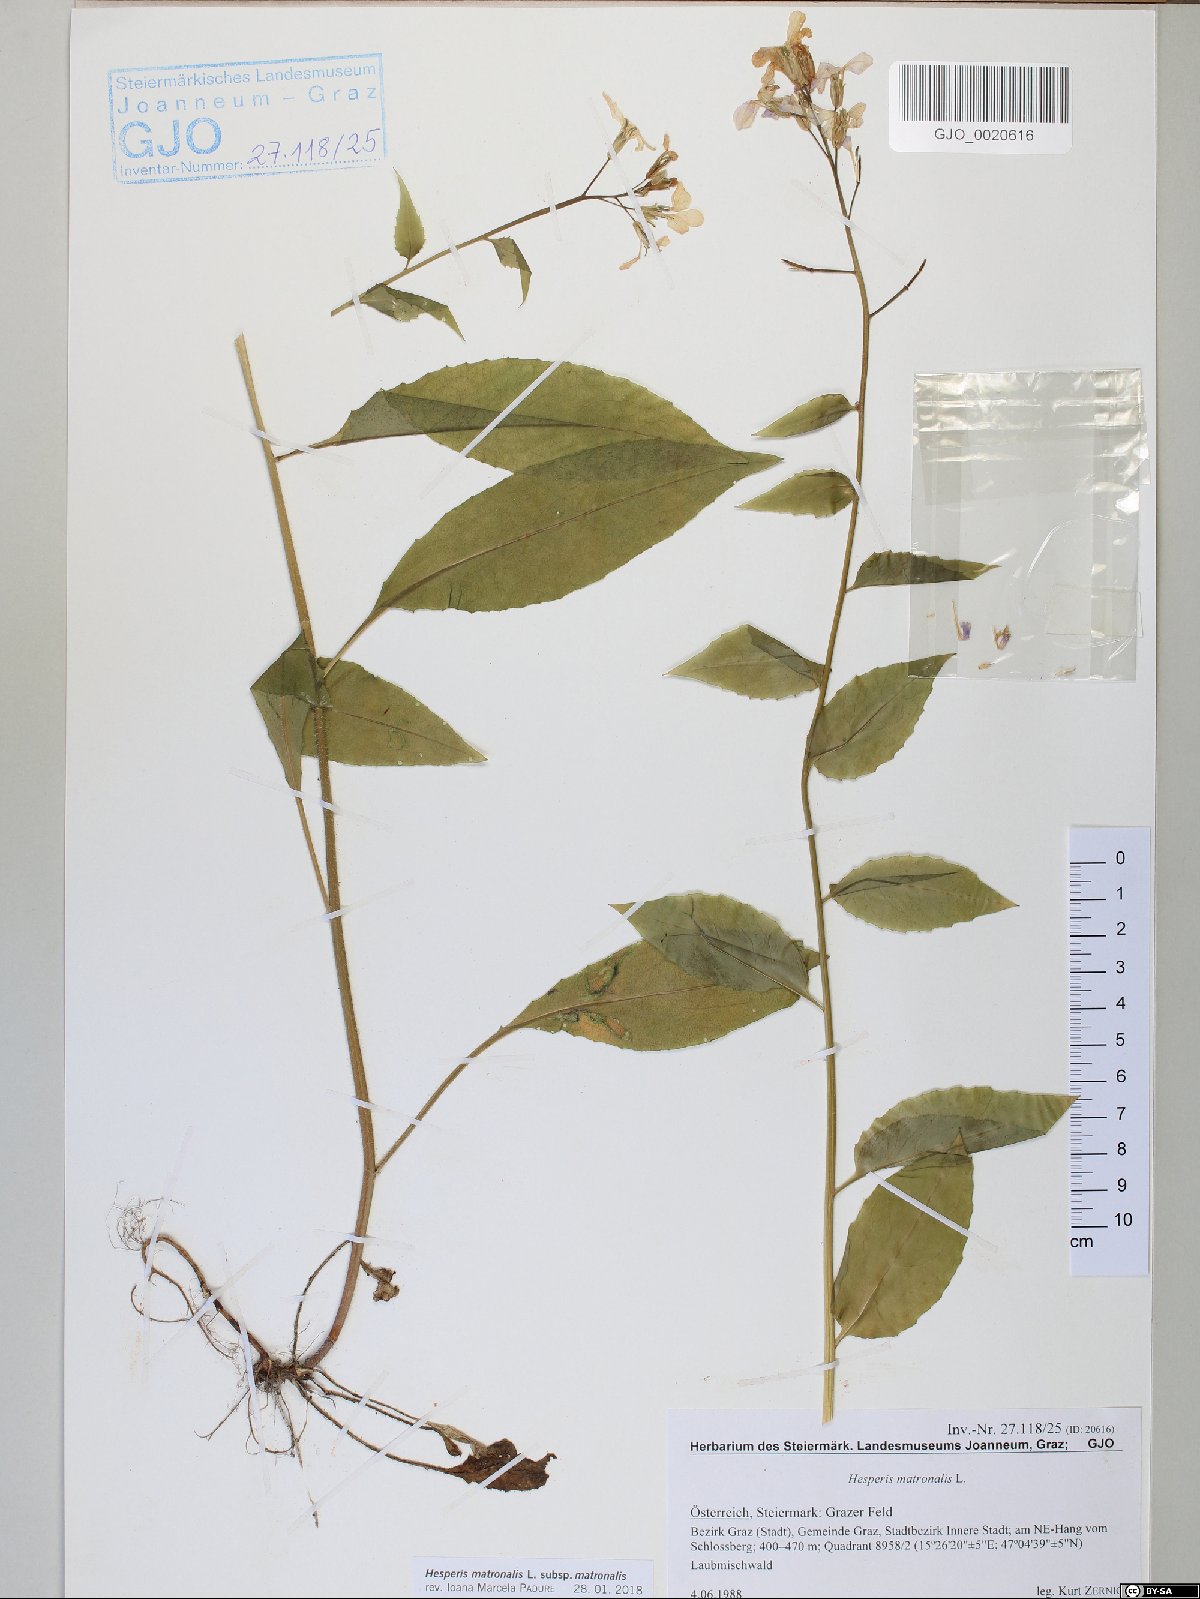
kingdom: Plantae
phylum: Tracheophyta
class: Magnoliopsida
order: Brassicales
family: Brassicaceae
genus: Hesperis
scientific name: Hesperis matronalis
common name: Dame's-violet
